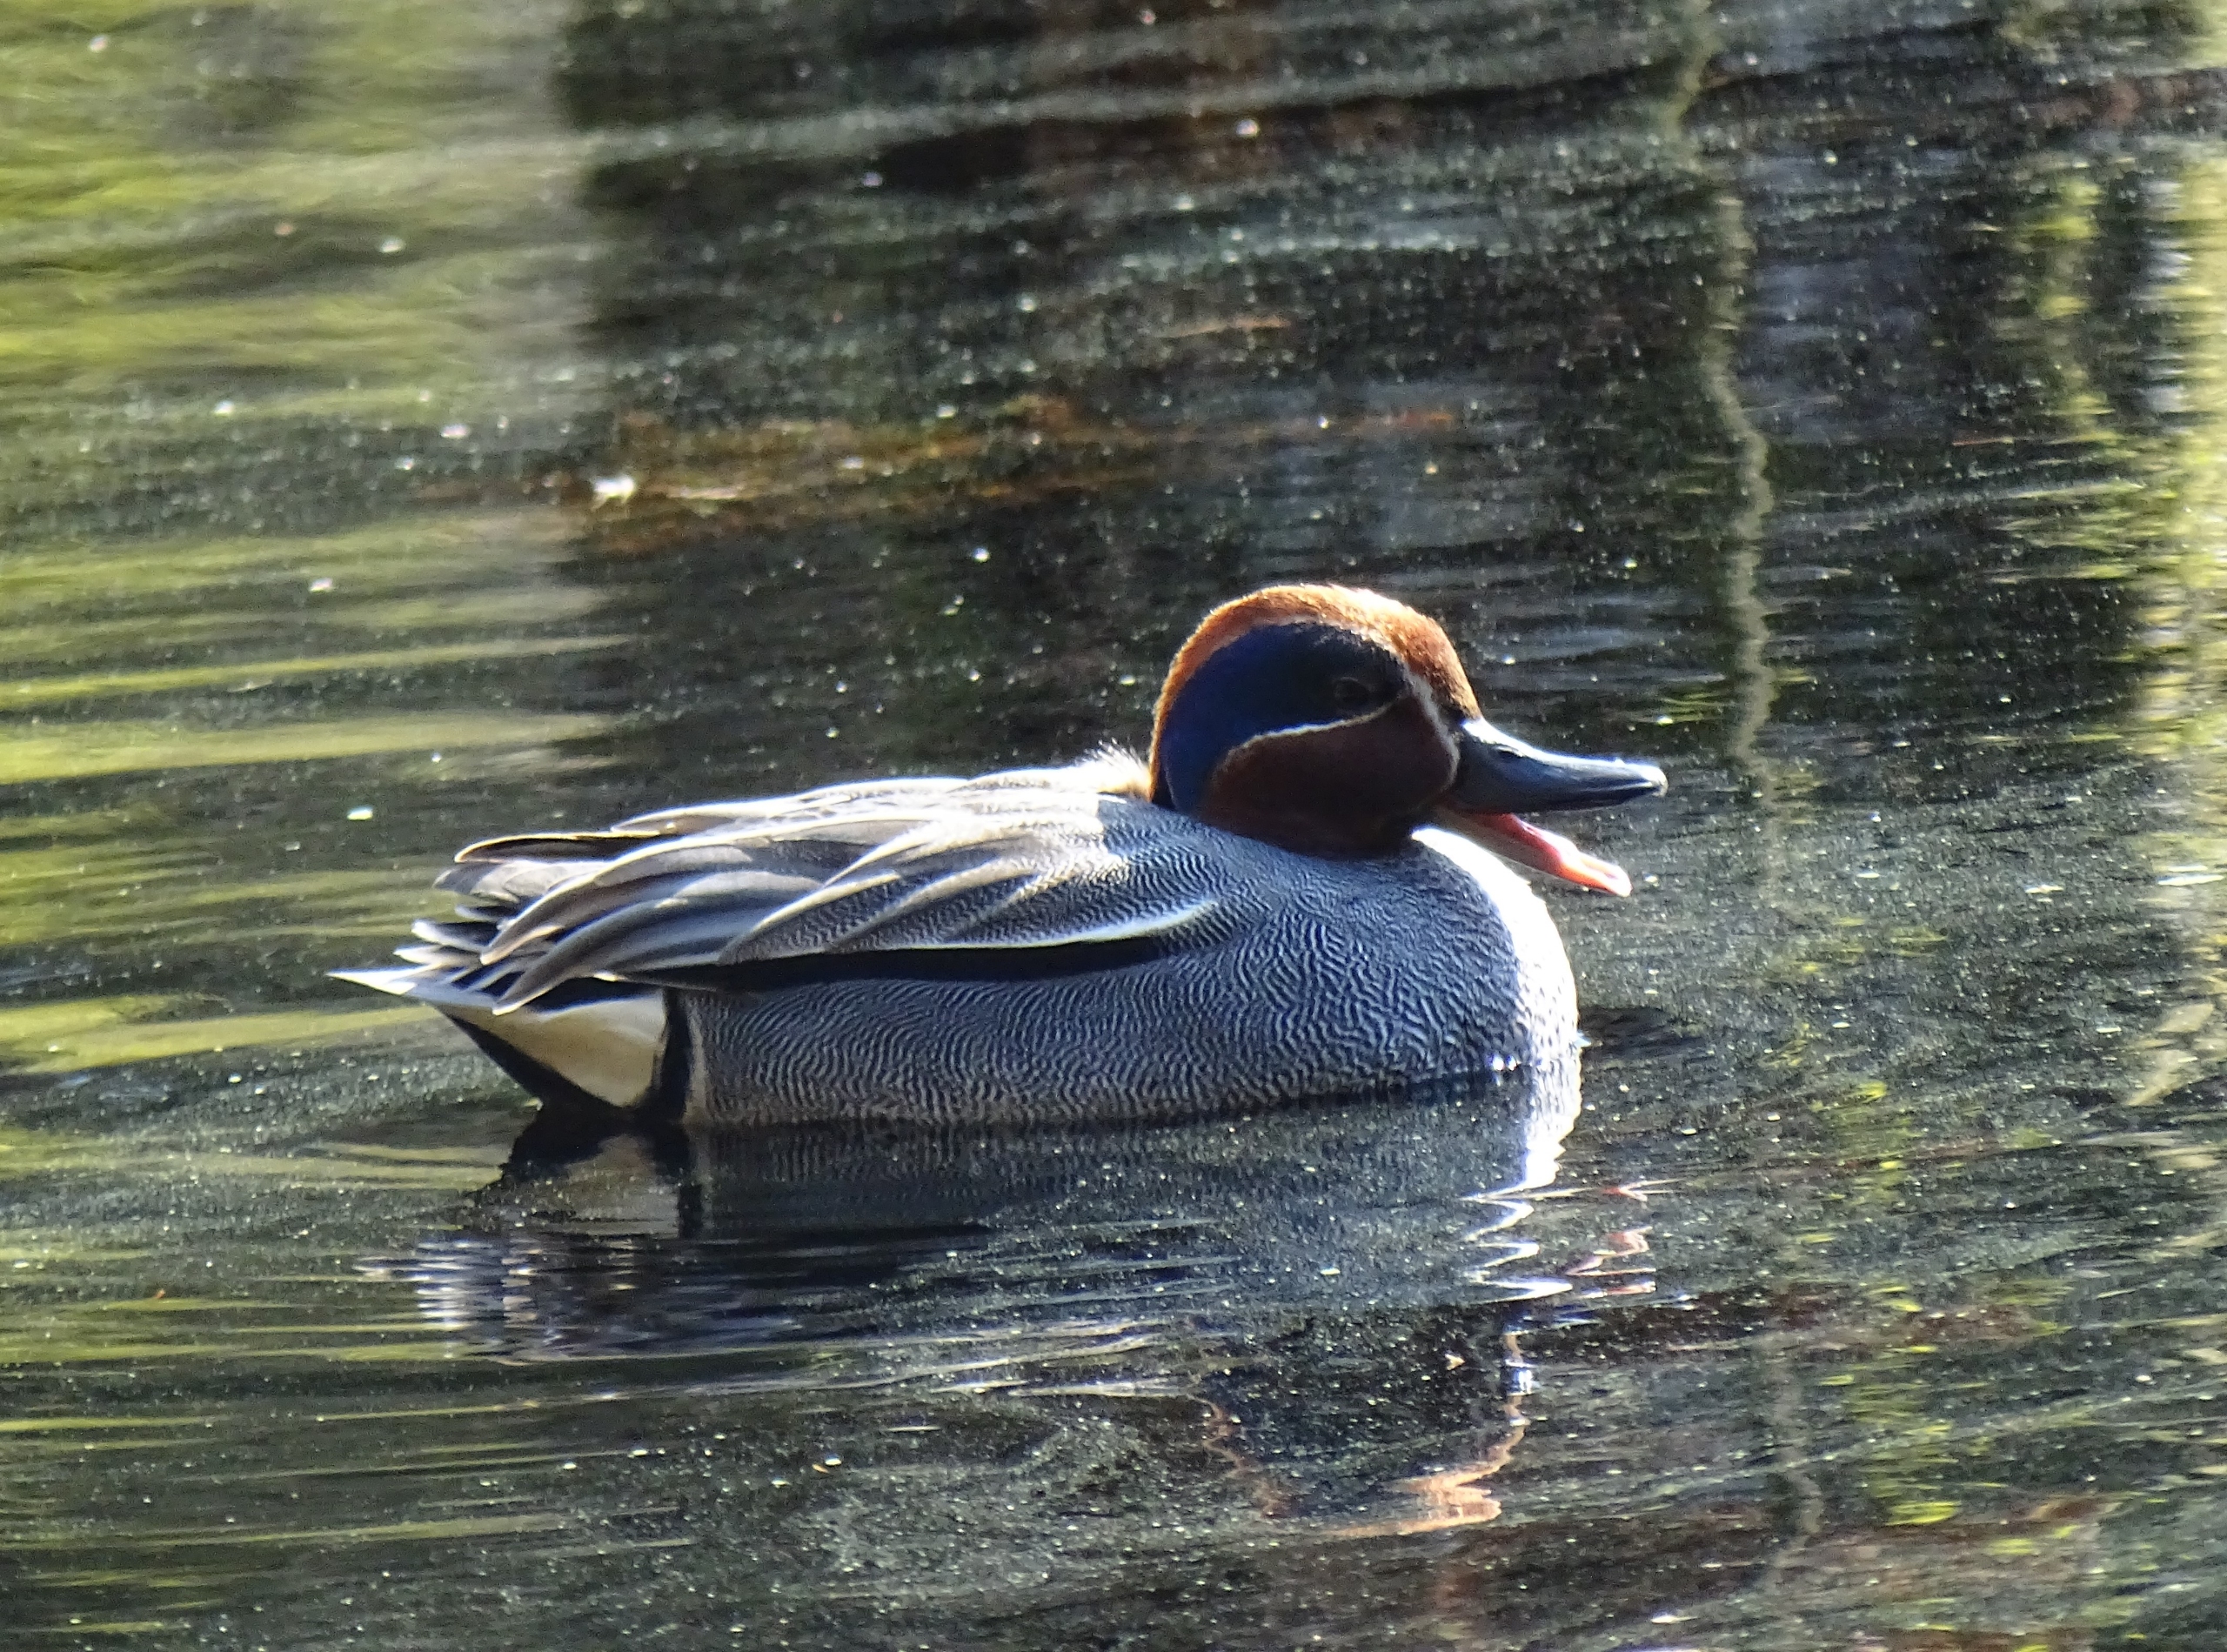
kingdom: Animalia
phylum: Chordata
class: Aves
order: Anseriformes
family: Anatidae
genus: Anas
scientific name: Anas crecca
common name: Krikand
